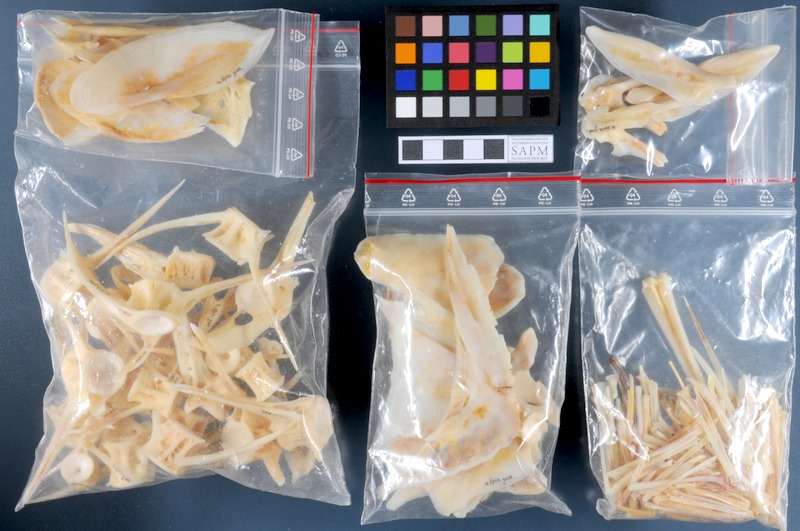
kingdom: Animalia
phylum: Chordata
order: Perciformes
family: Serranidae
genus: Epinephelus
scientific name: Epinephelus marginatus
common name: Dusky grouper
